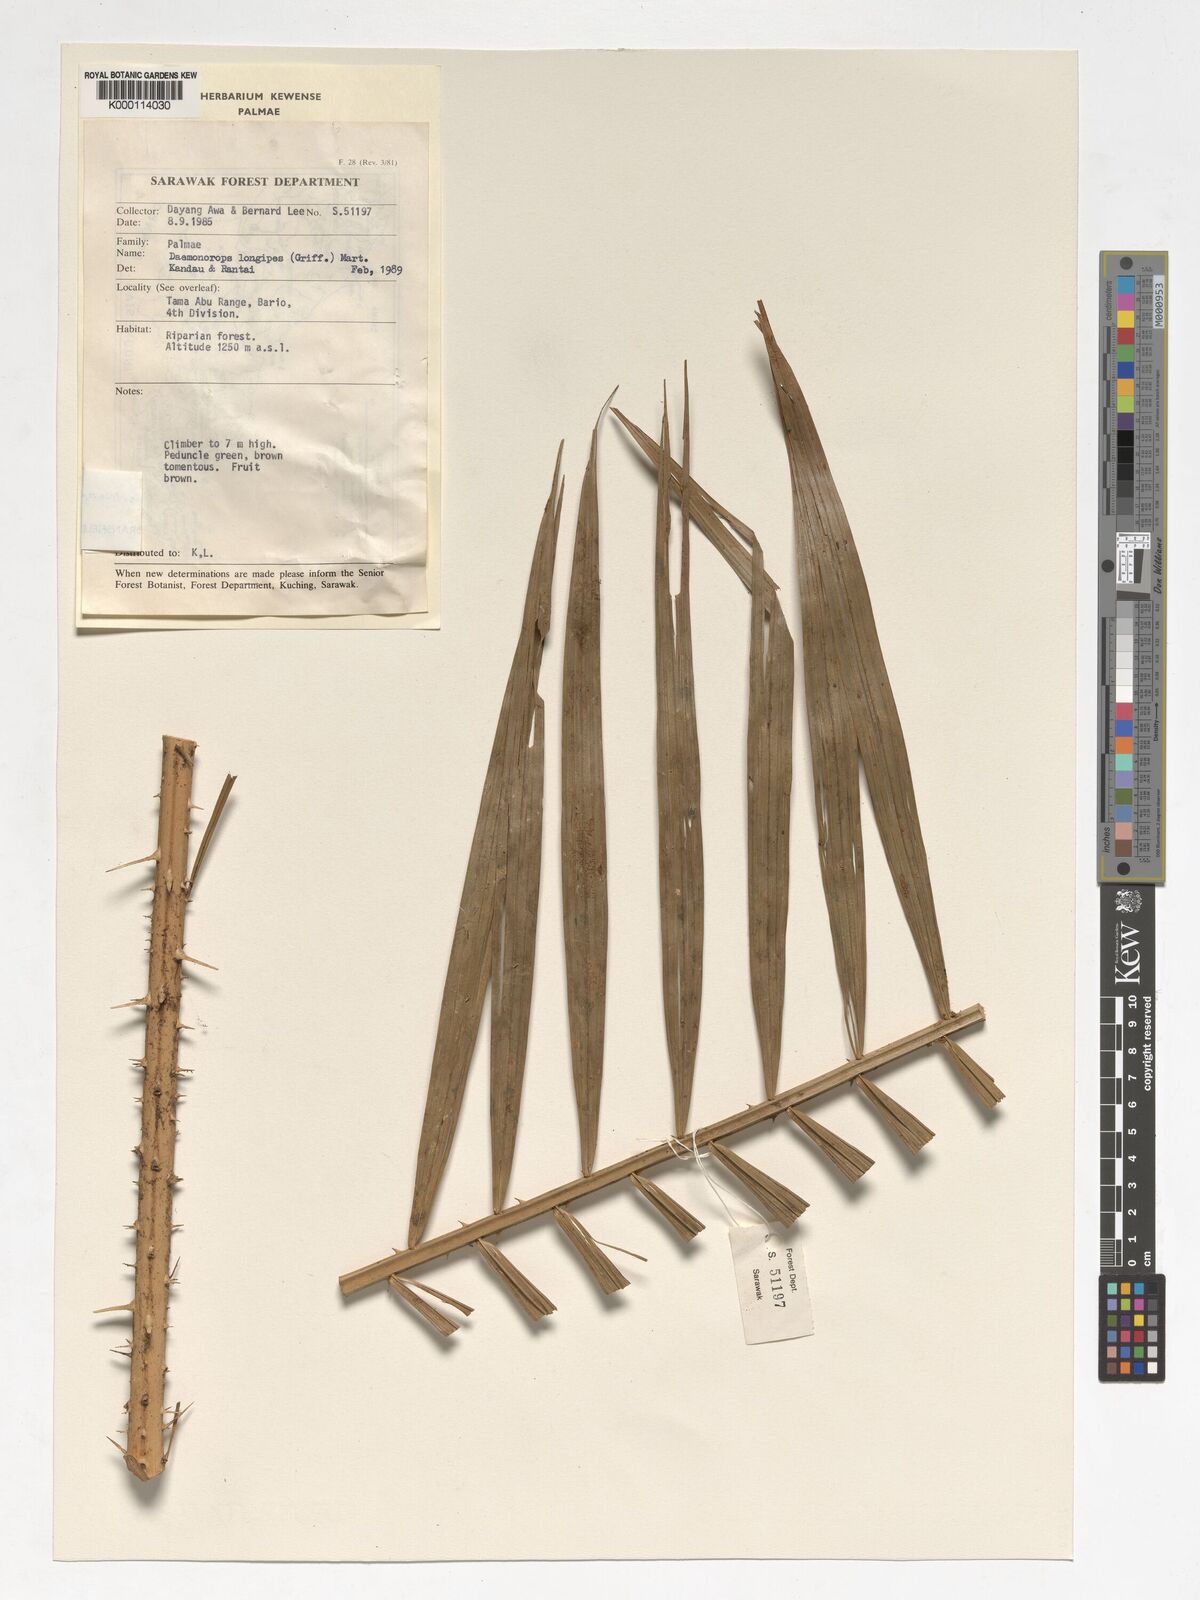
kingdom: Plantae
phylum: Tracheophyta
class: Liliopsida
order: Arecales
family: Arecaceae
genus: Calamus
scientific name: Calamus
